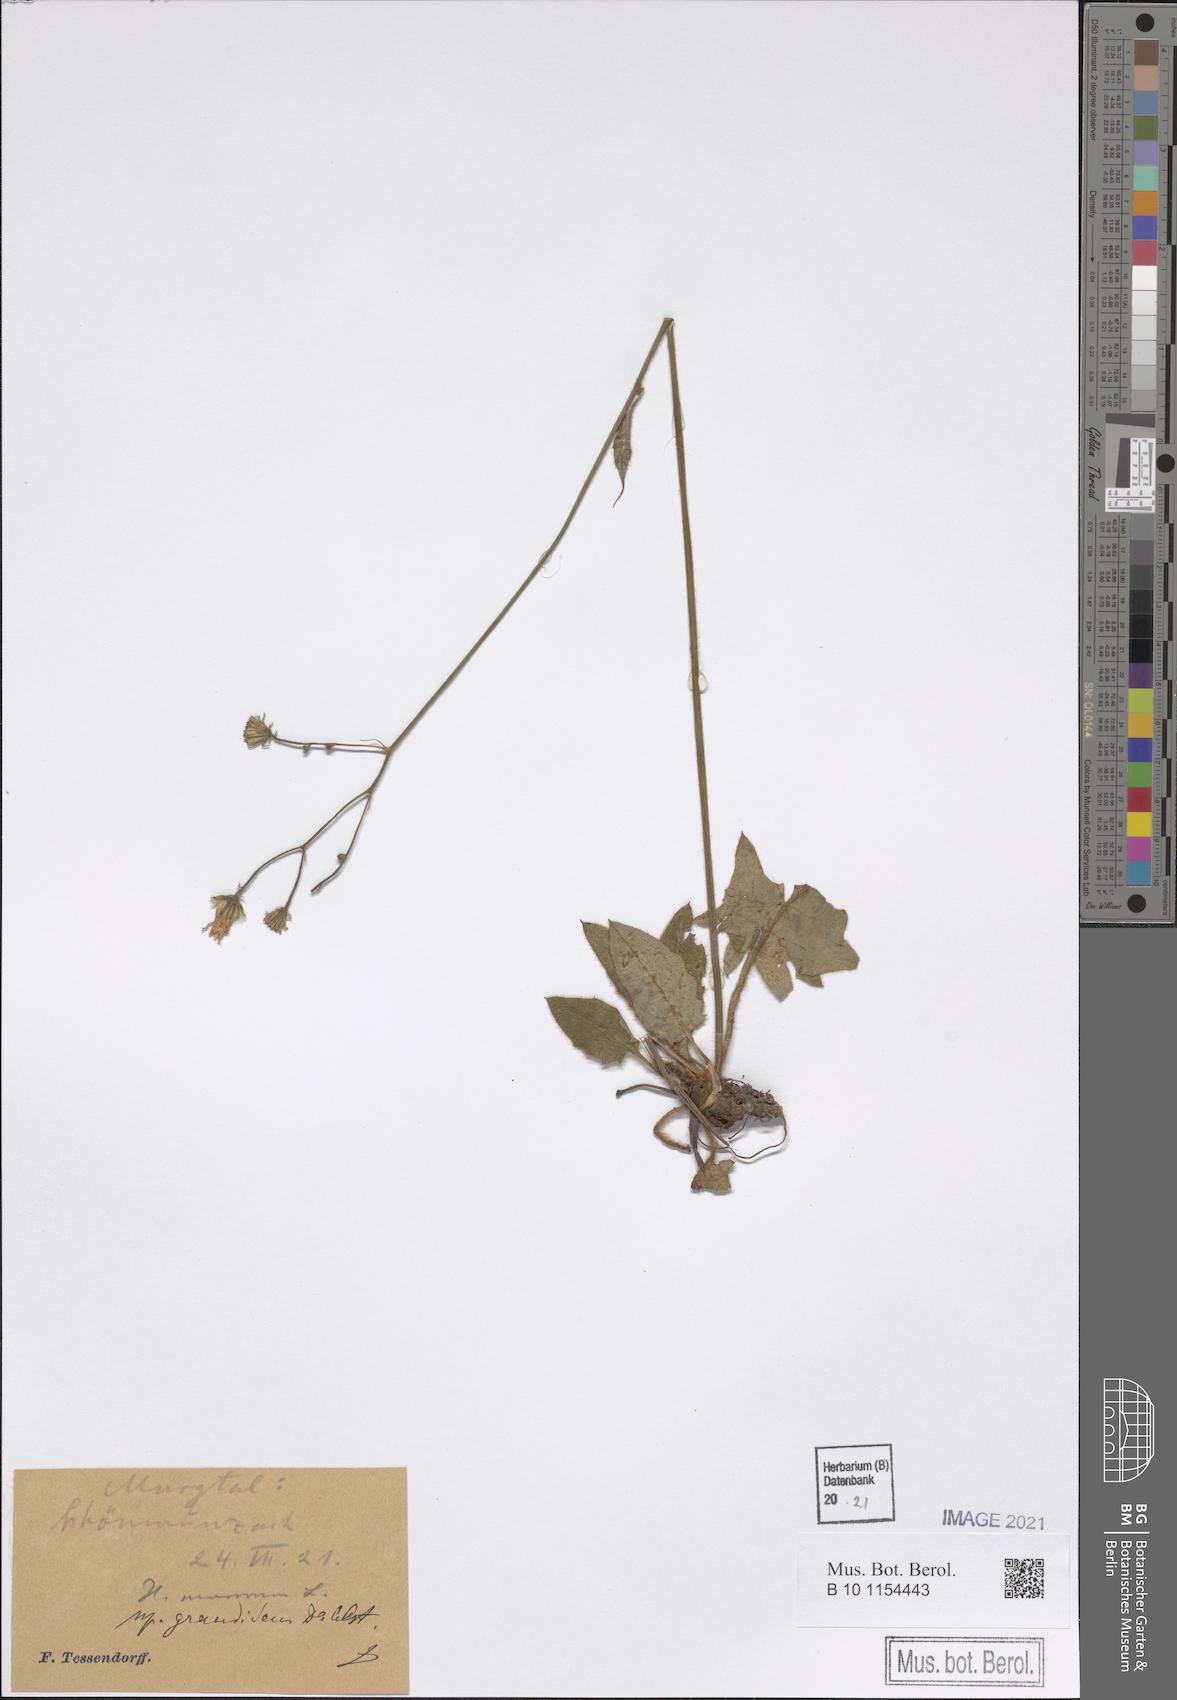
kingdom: Plantae
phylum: Tracheophyta
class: Magnoliopsida
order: Asterales
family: Asteraceae
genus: Hieracium
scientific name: Hieracium murorum
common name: Wall hawkweed
